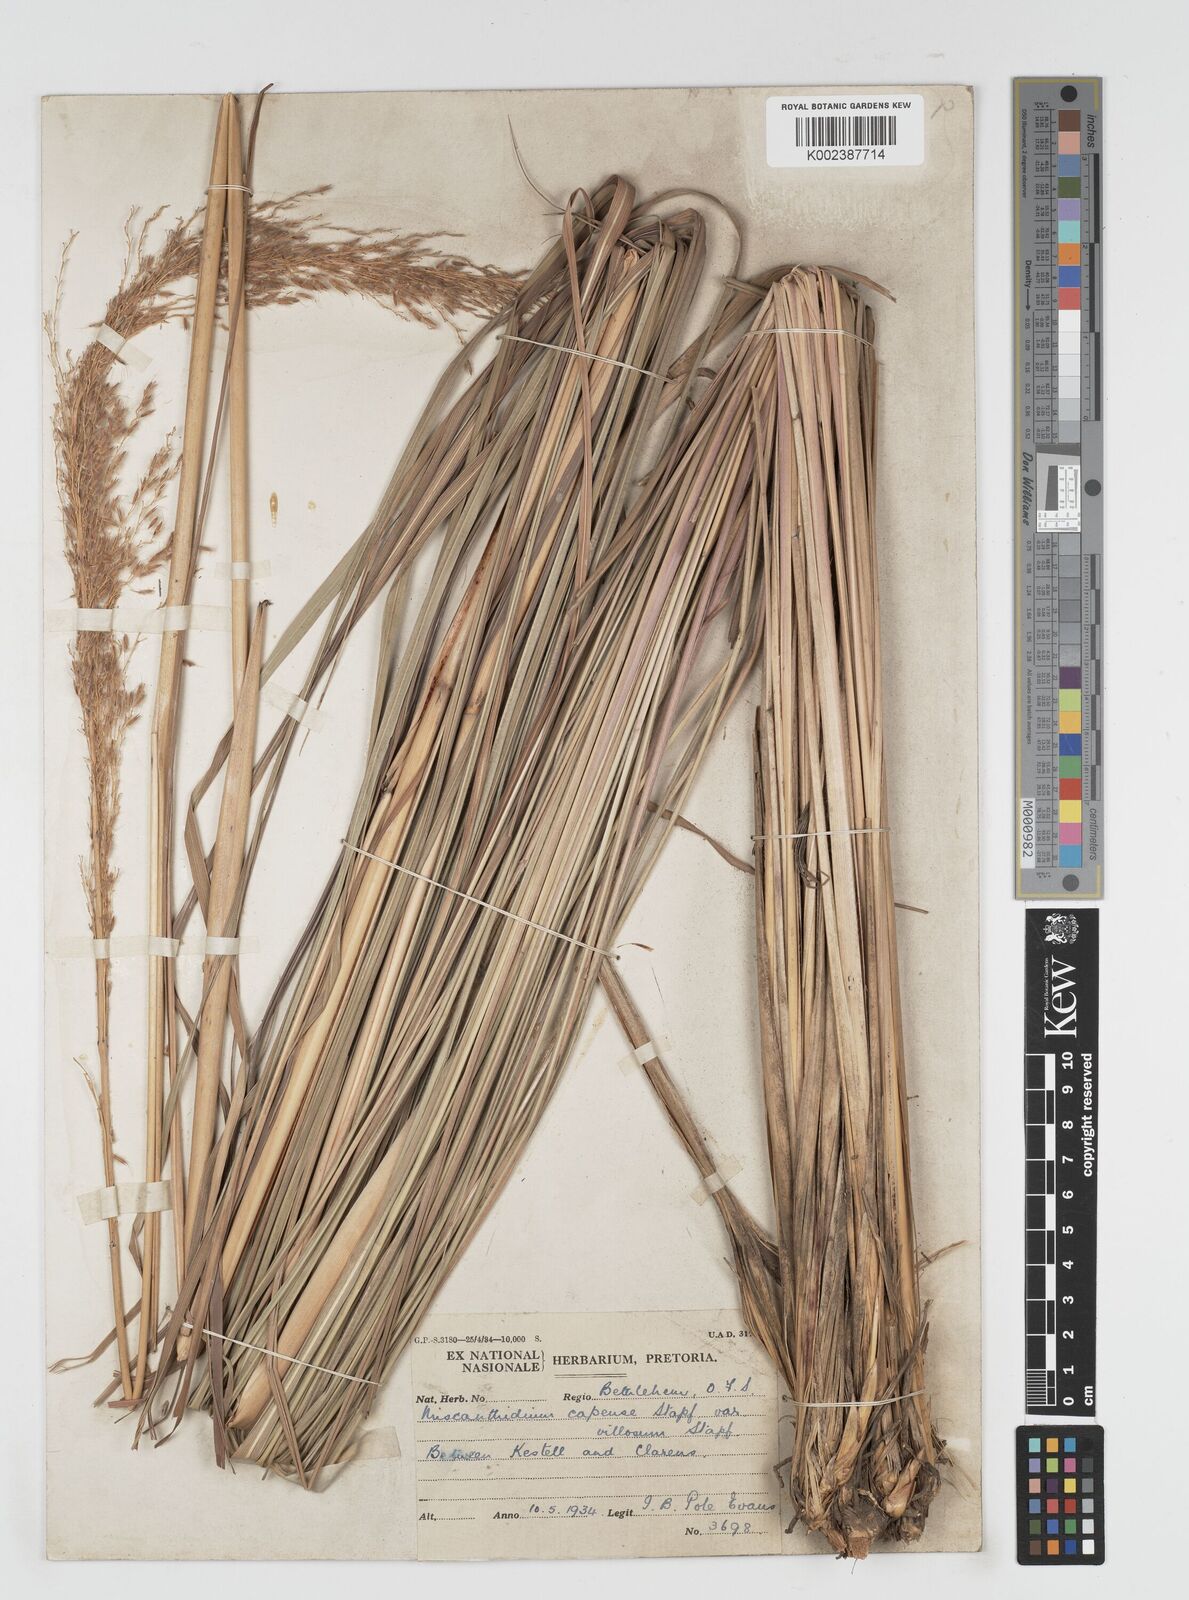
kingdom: Plantae
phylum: Tracheophyta
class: Liliopsida
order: Poales
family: Poaceae
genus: Miscanthus
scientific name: Miscanthus ecklonii
